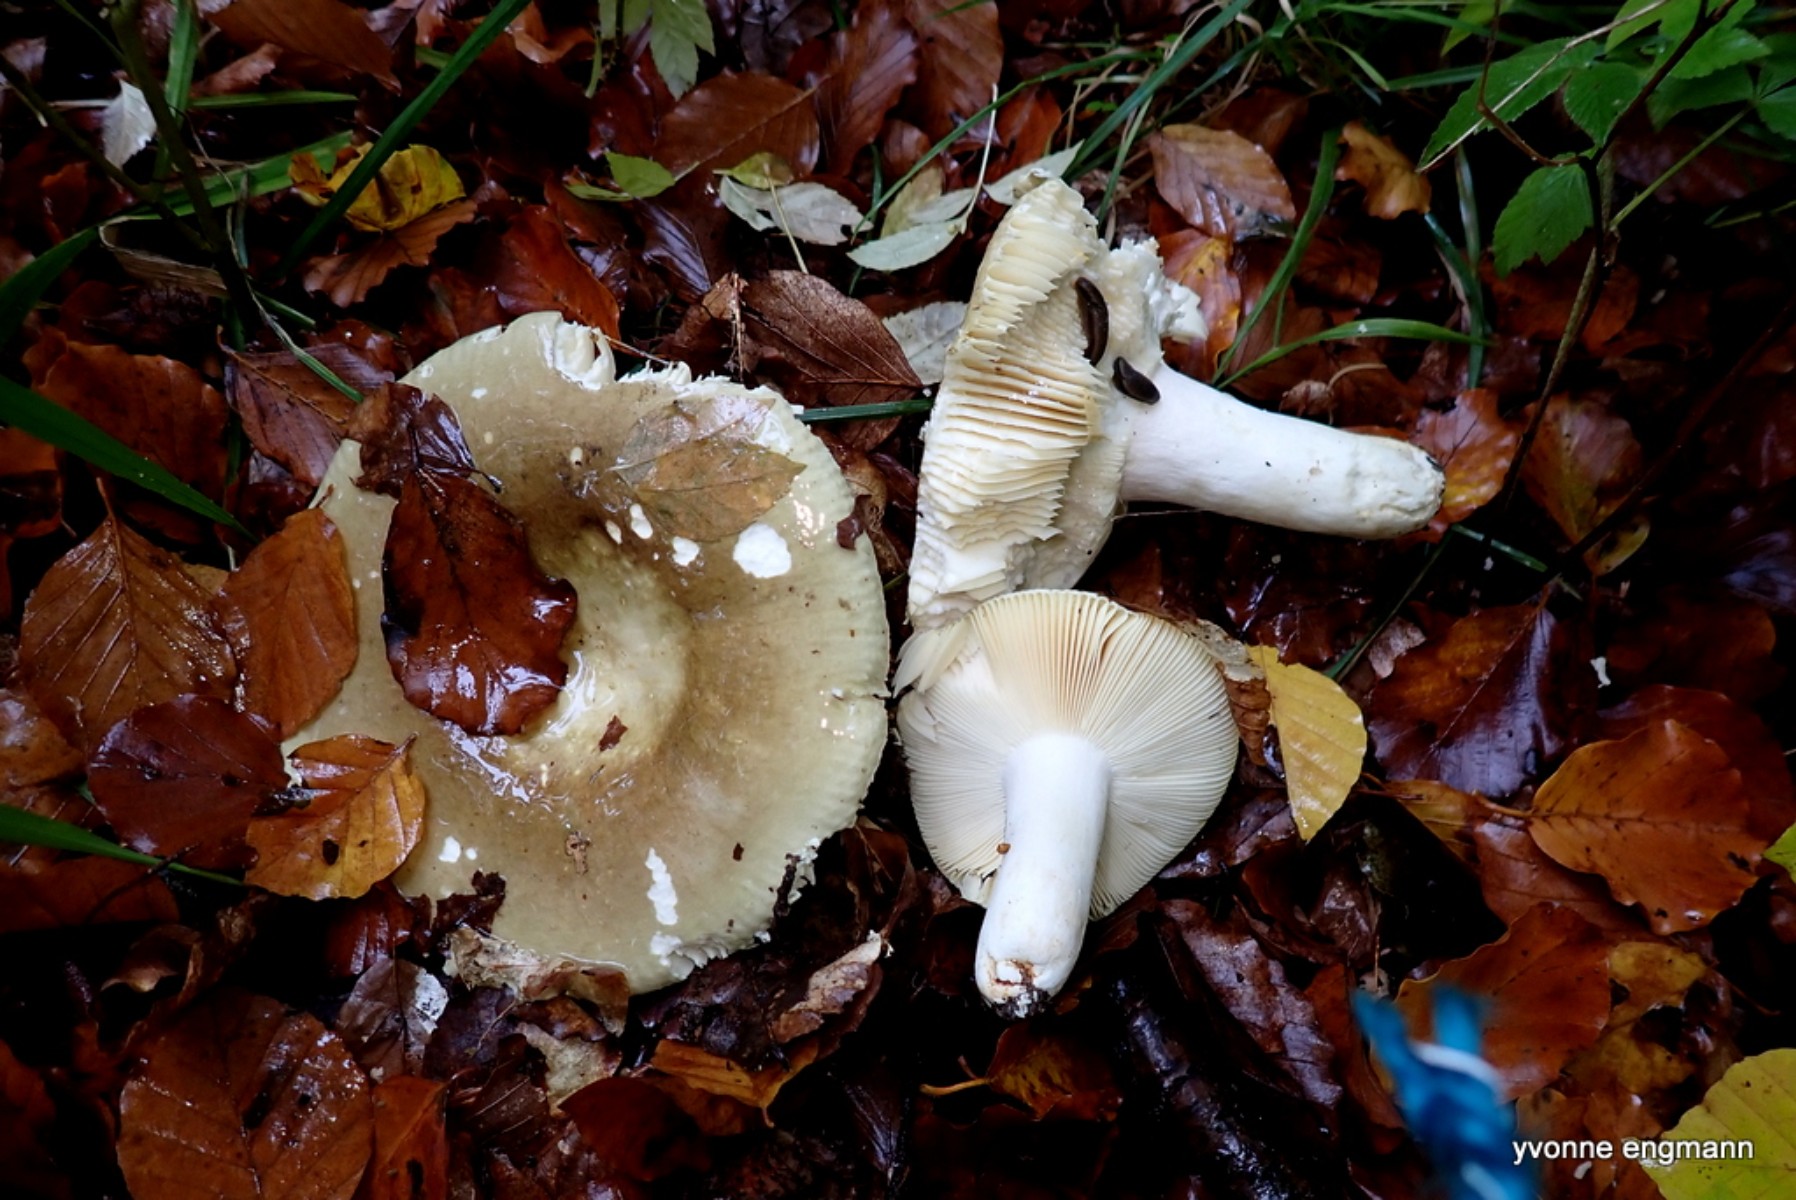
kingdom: Fungi
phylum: Basidiomycota
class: Agaricomycetes
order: Russulales
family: Russulaceae
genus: Russula
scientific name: Russula
